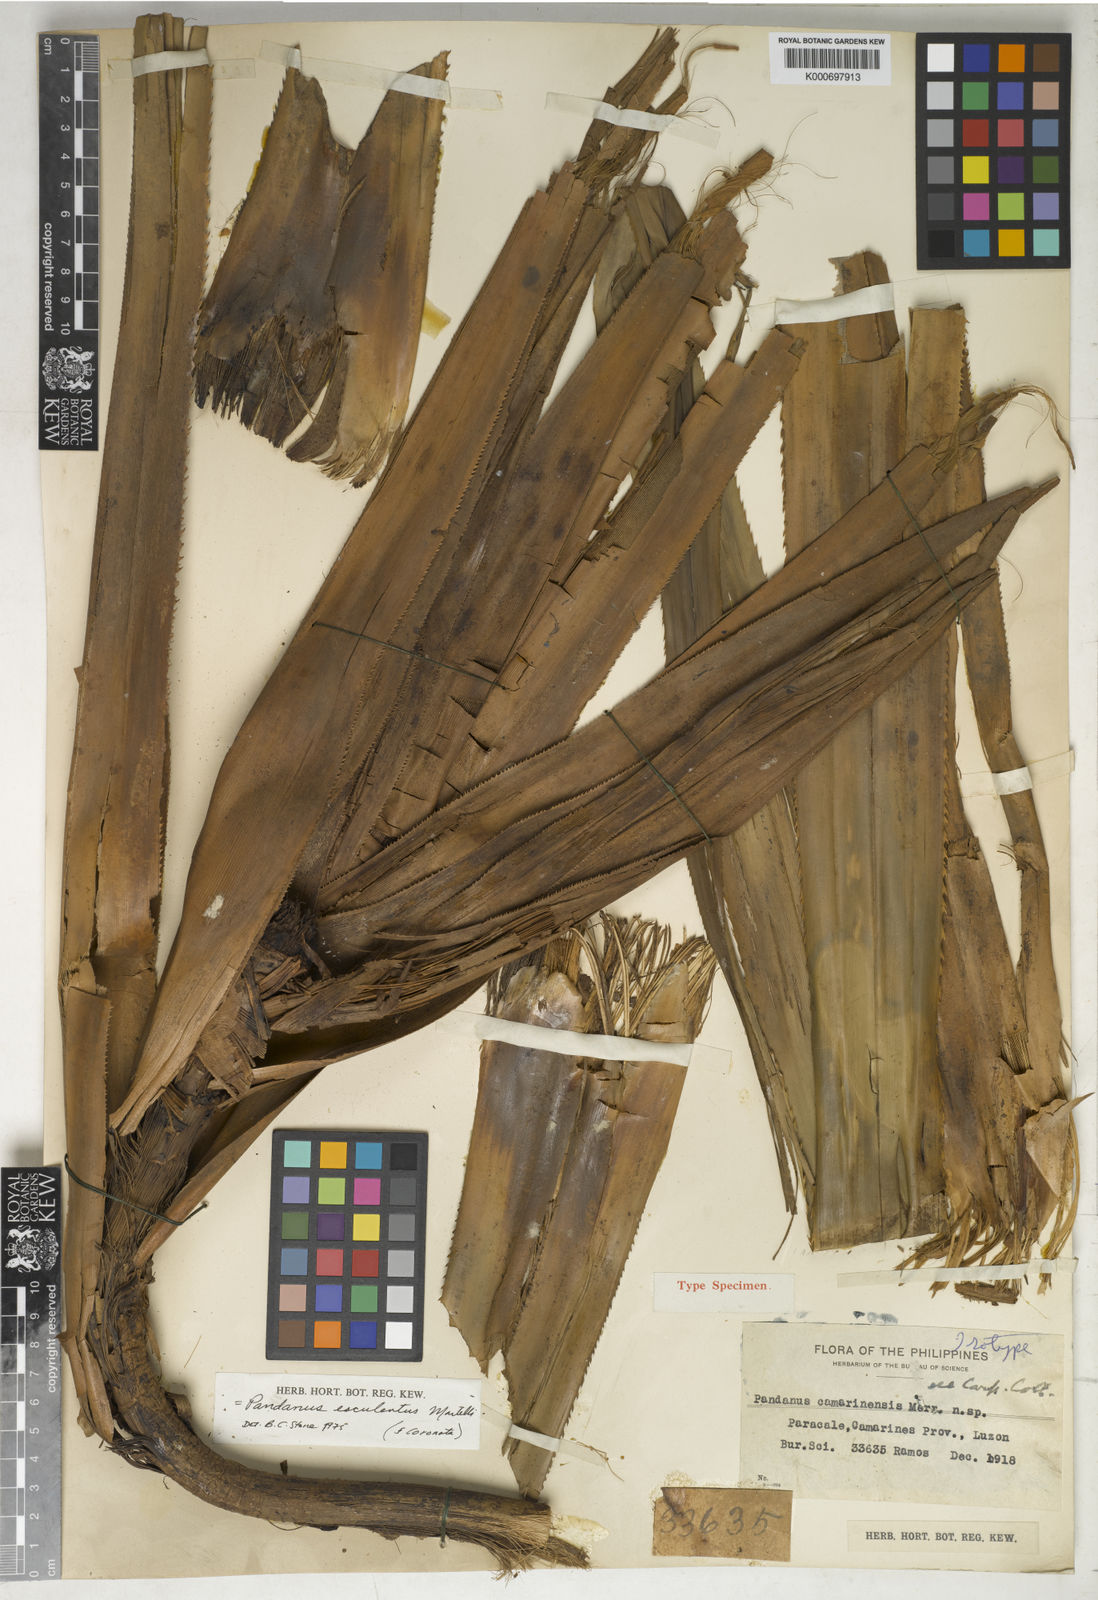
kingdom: Plantae
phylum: Tracheophyta
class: Liliopsida
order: Pandanales
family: Pandanaceae
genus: Pandanus
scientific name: Pandanus camarinensis
